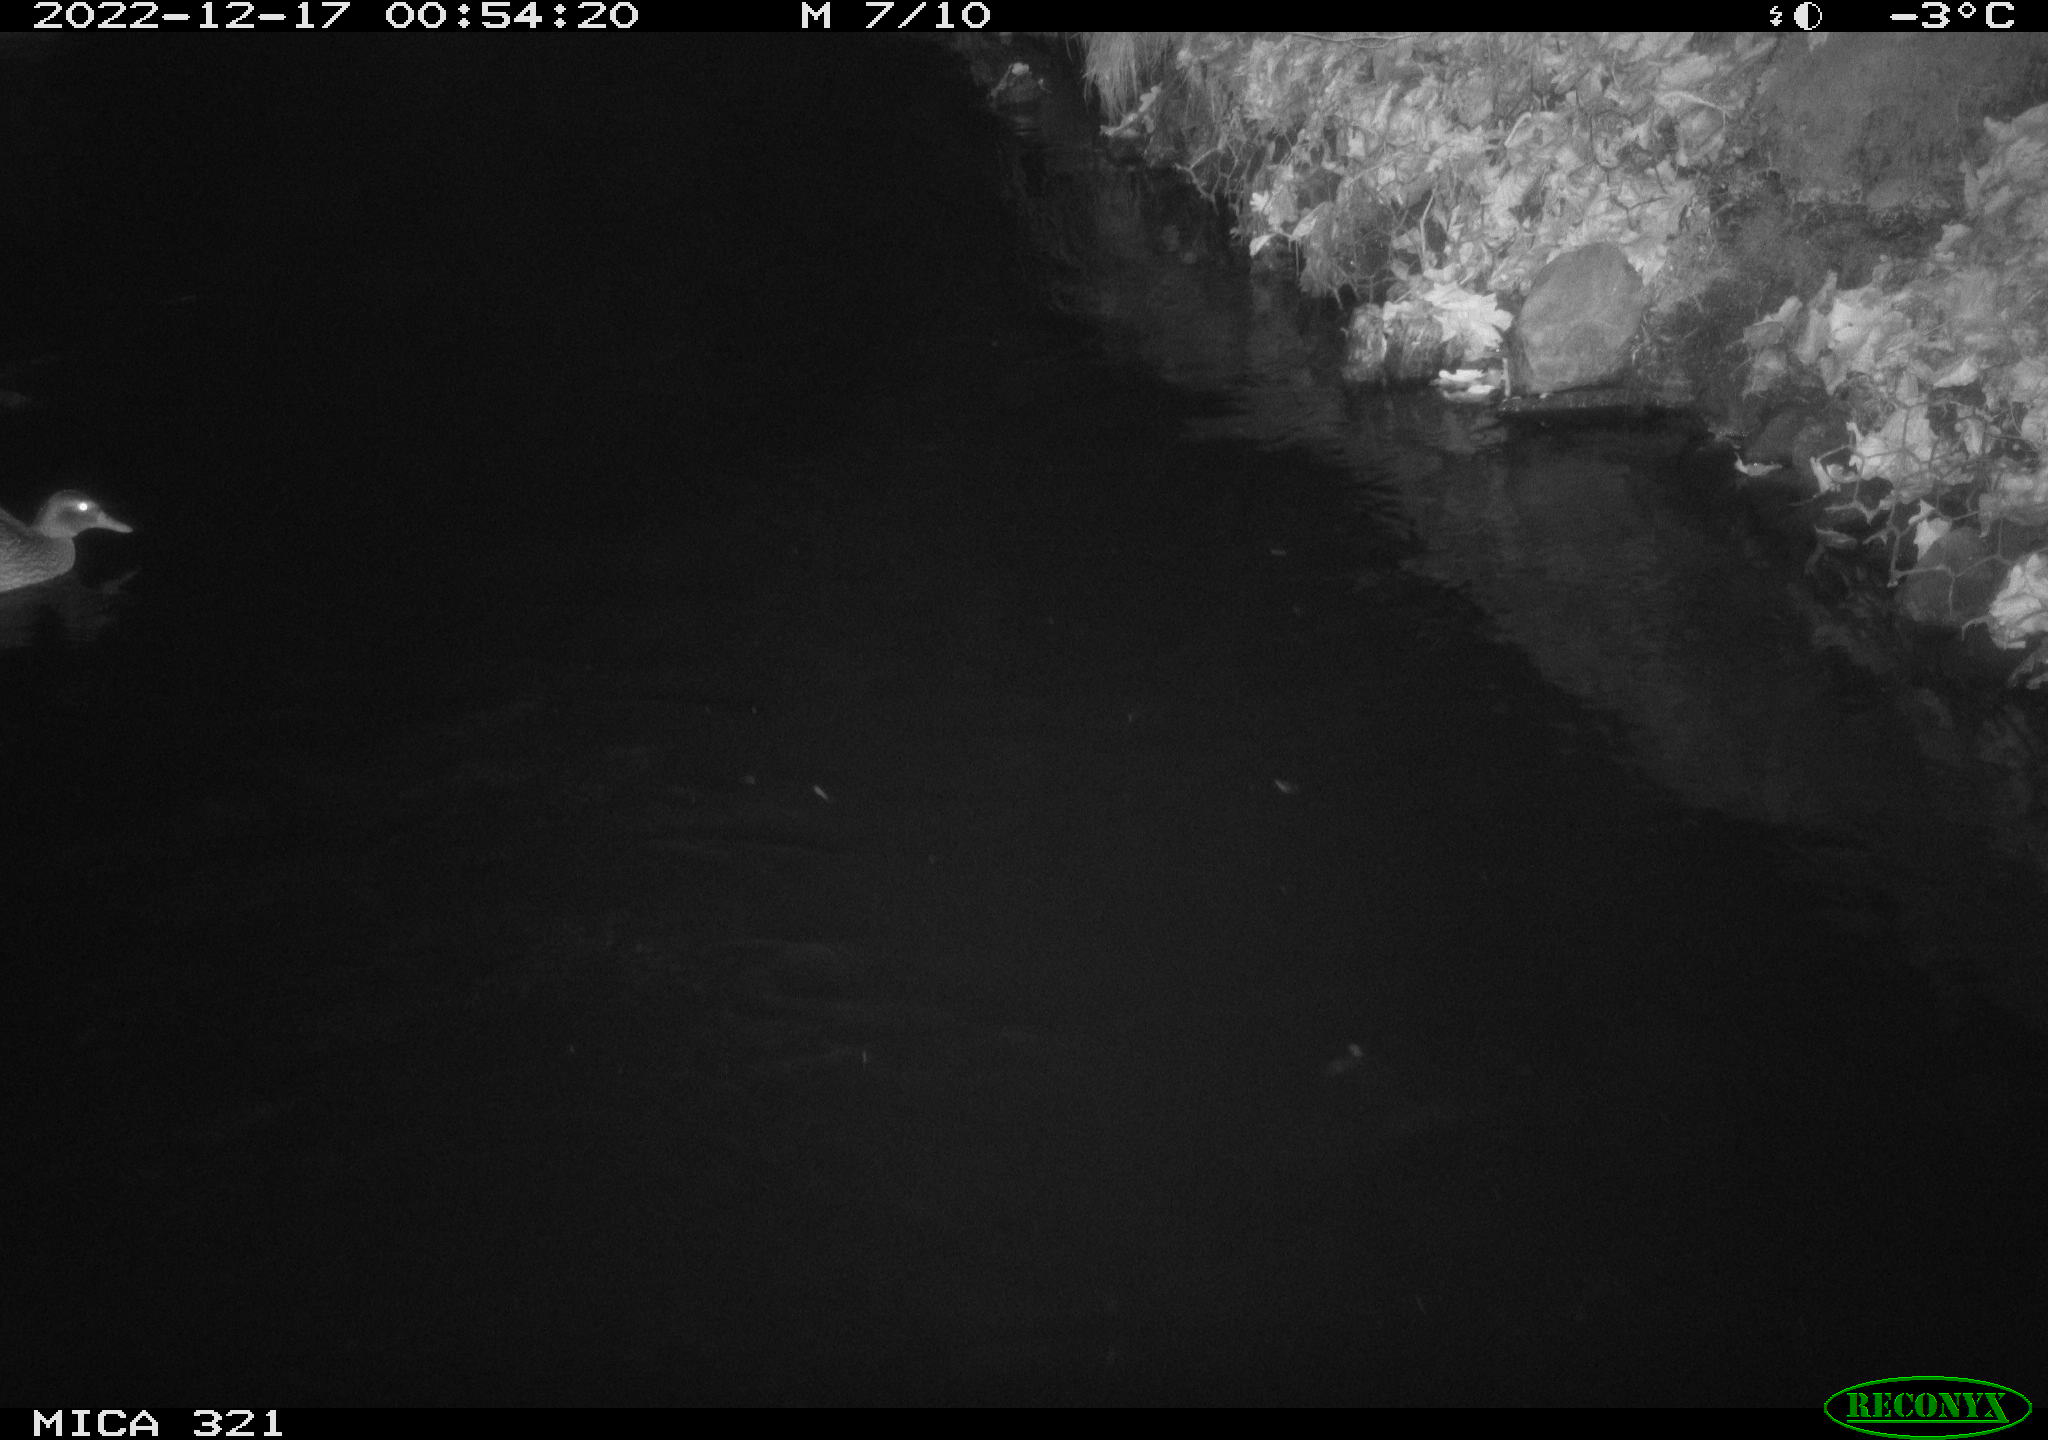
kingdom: Animalia
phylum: Chordata
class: Aves
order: Anseriformes
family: Anatidae
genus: Anas
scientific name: Anas
